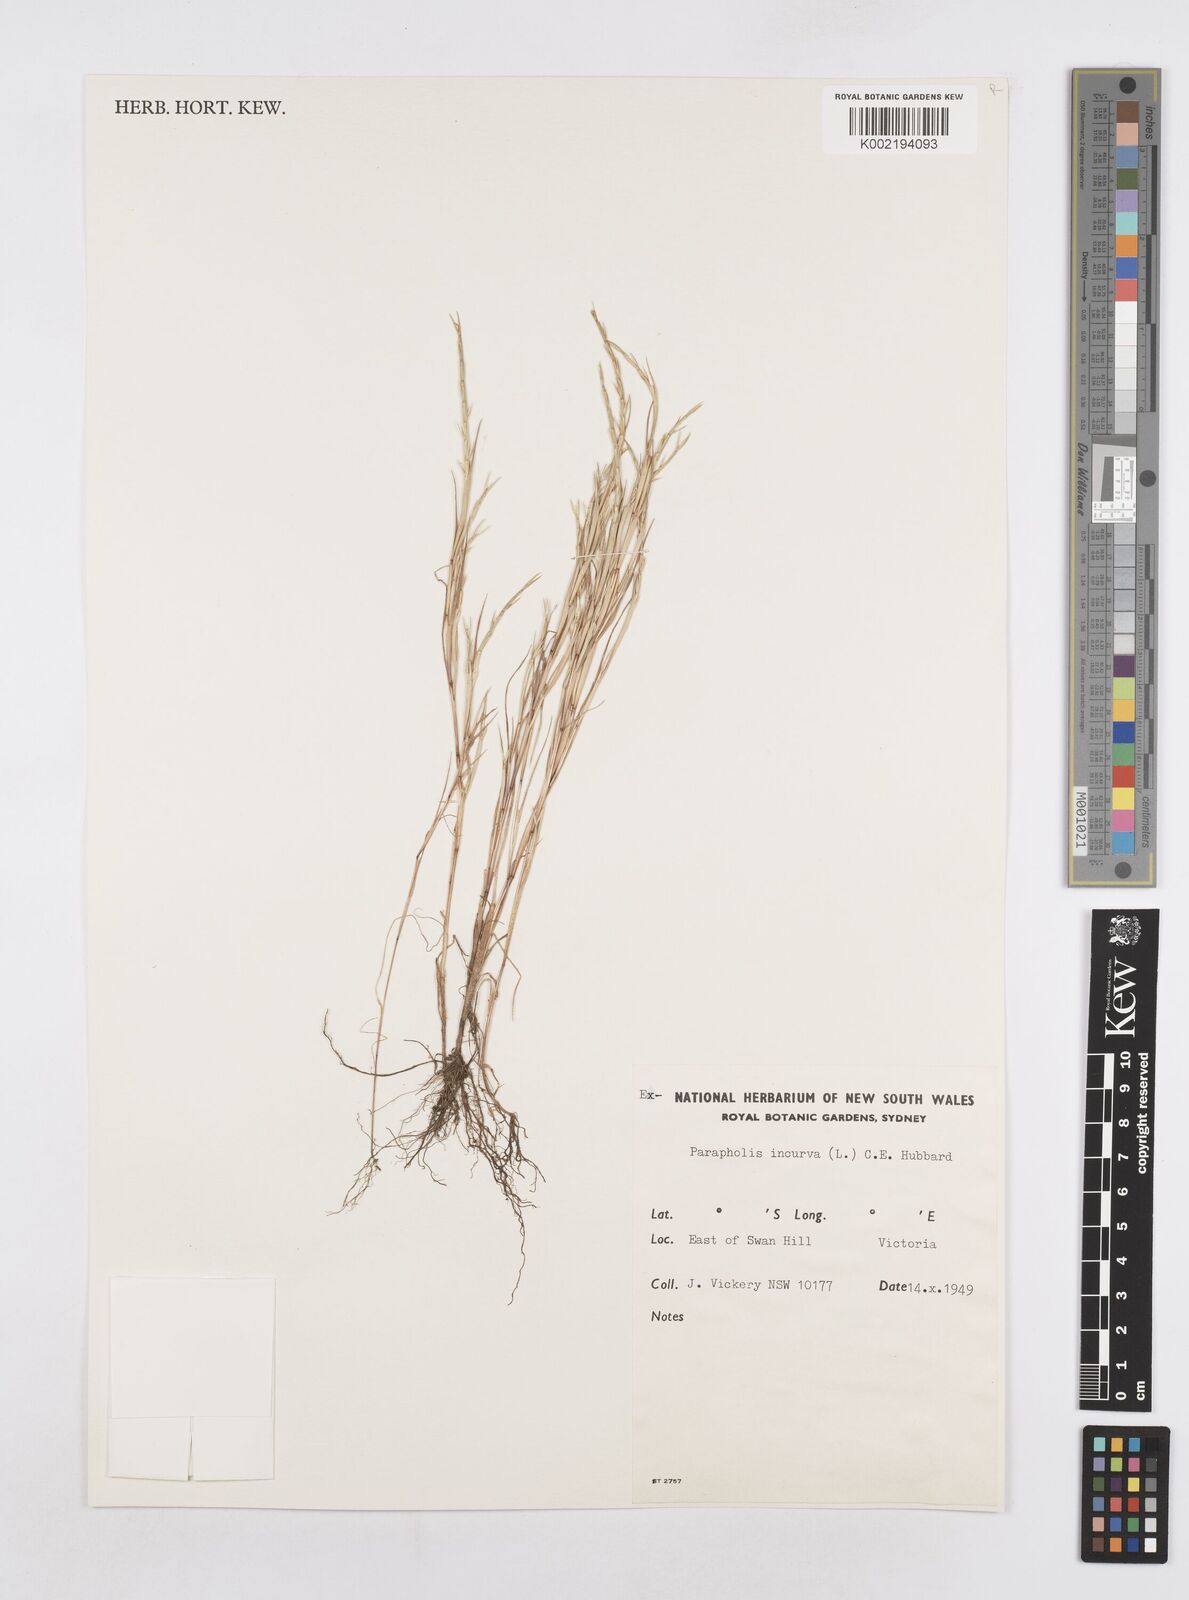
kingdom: Plantae
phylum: Tracheophyta
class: Liliopsida
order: Poales
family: Poaceae
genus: Parapholis
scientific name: Parapholis strigosa
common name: Hard-grass
